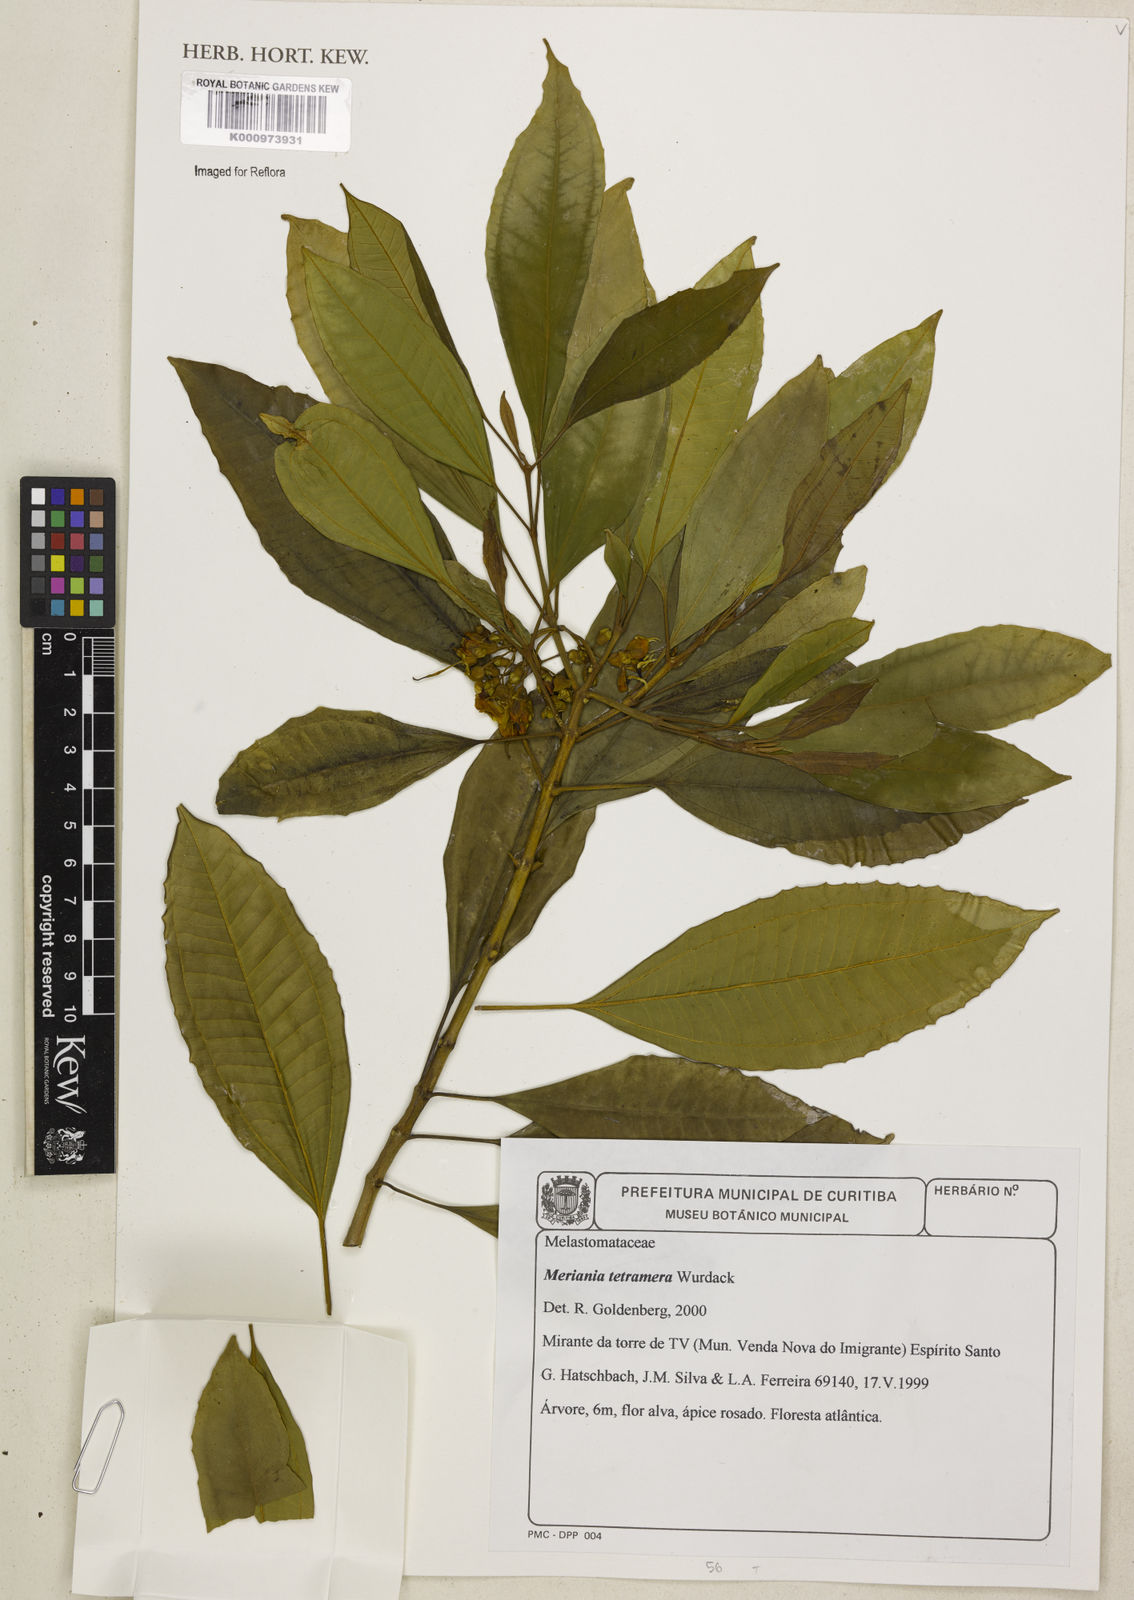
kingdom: Plantae
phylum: Tracheophyta
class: Magnoliopsida
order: Myrtales
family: Melastomataceae
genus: Meriania
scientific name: Meriania tetramera
